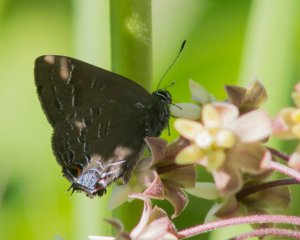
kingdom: Animalia
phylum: Arthropoda
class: Insecta
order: Lepidoptera
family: Lycaenidae
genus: Satyrium
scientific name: Satyrium calanus
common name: Banded Hairstreak
